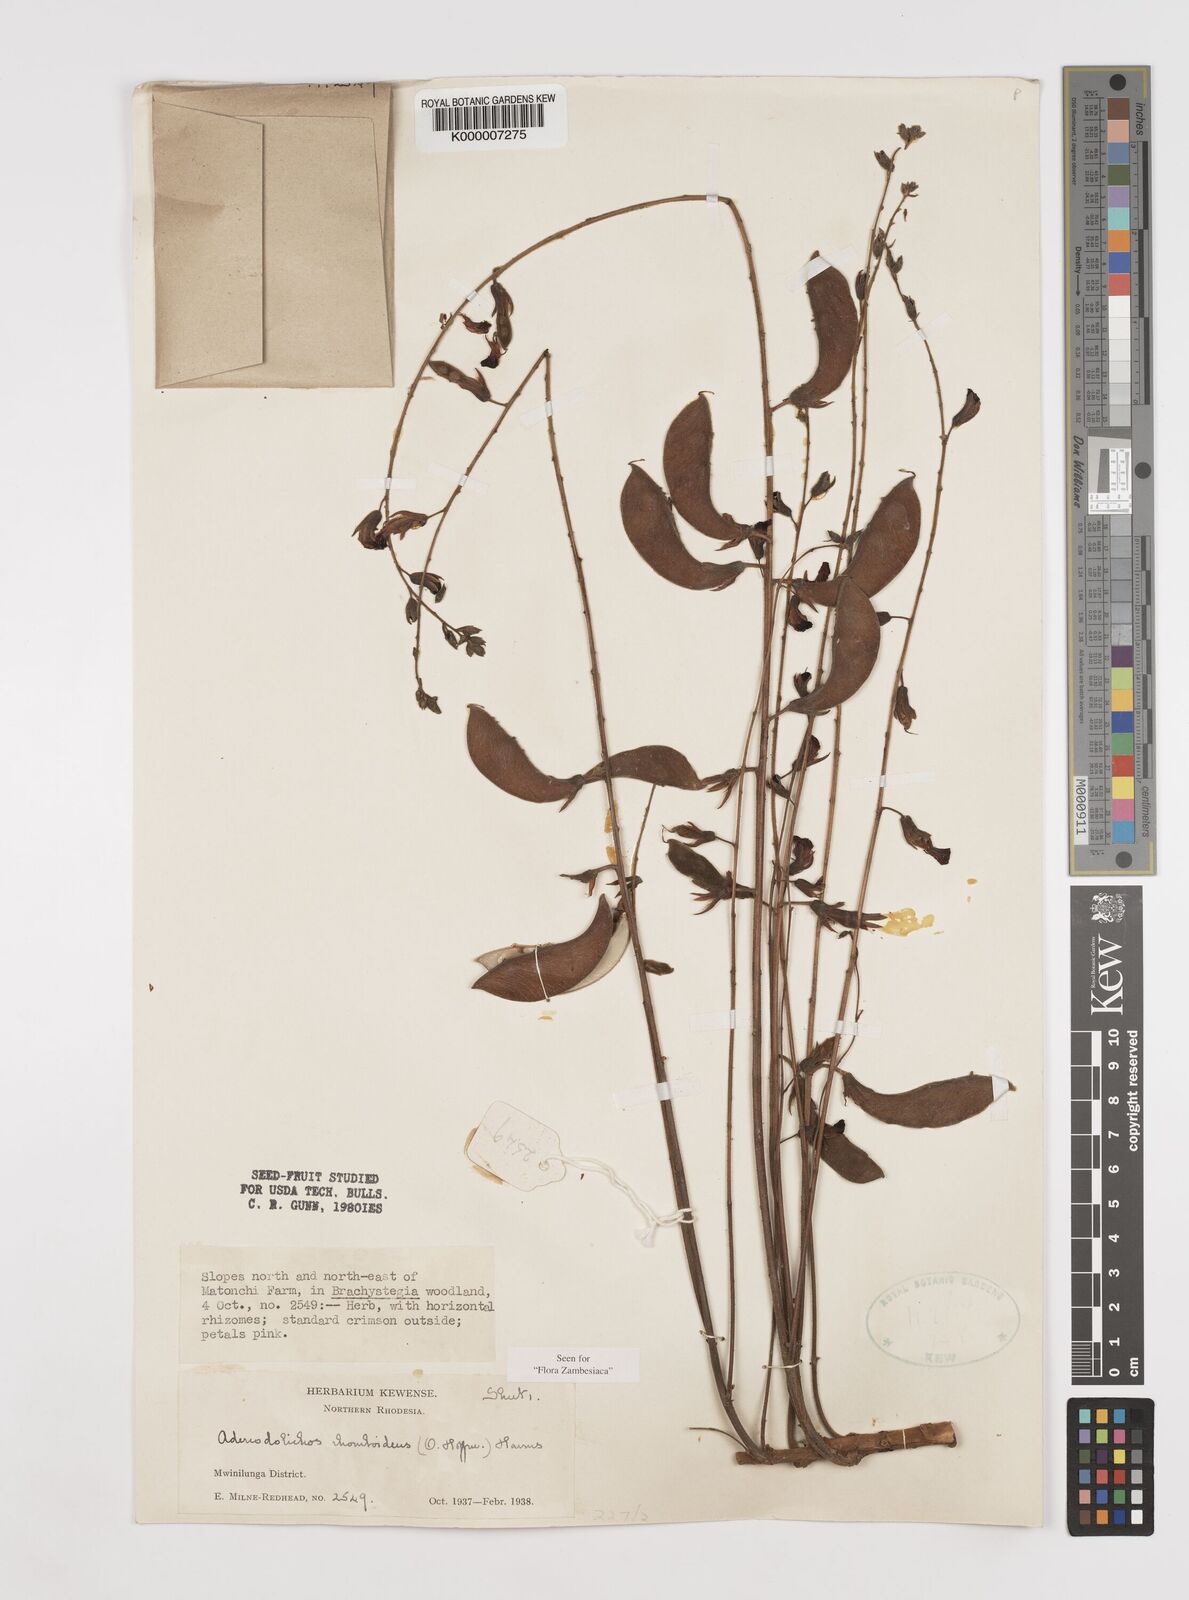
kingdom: Plantae
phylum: Tracheophyta
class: Magnoliopsida
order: Fabales
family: Fabaceae
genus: Adenodolichos
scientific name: Adenodolichos rhomboideus
